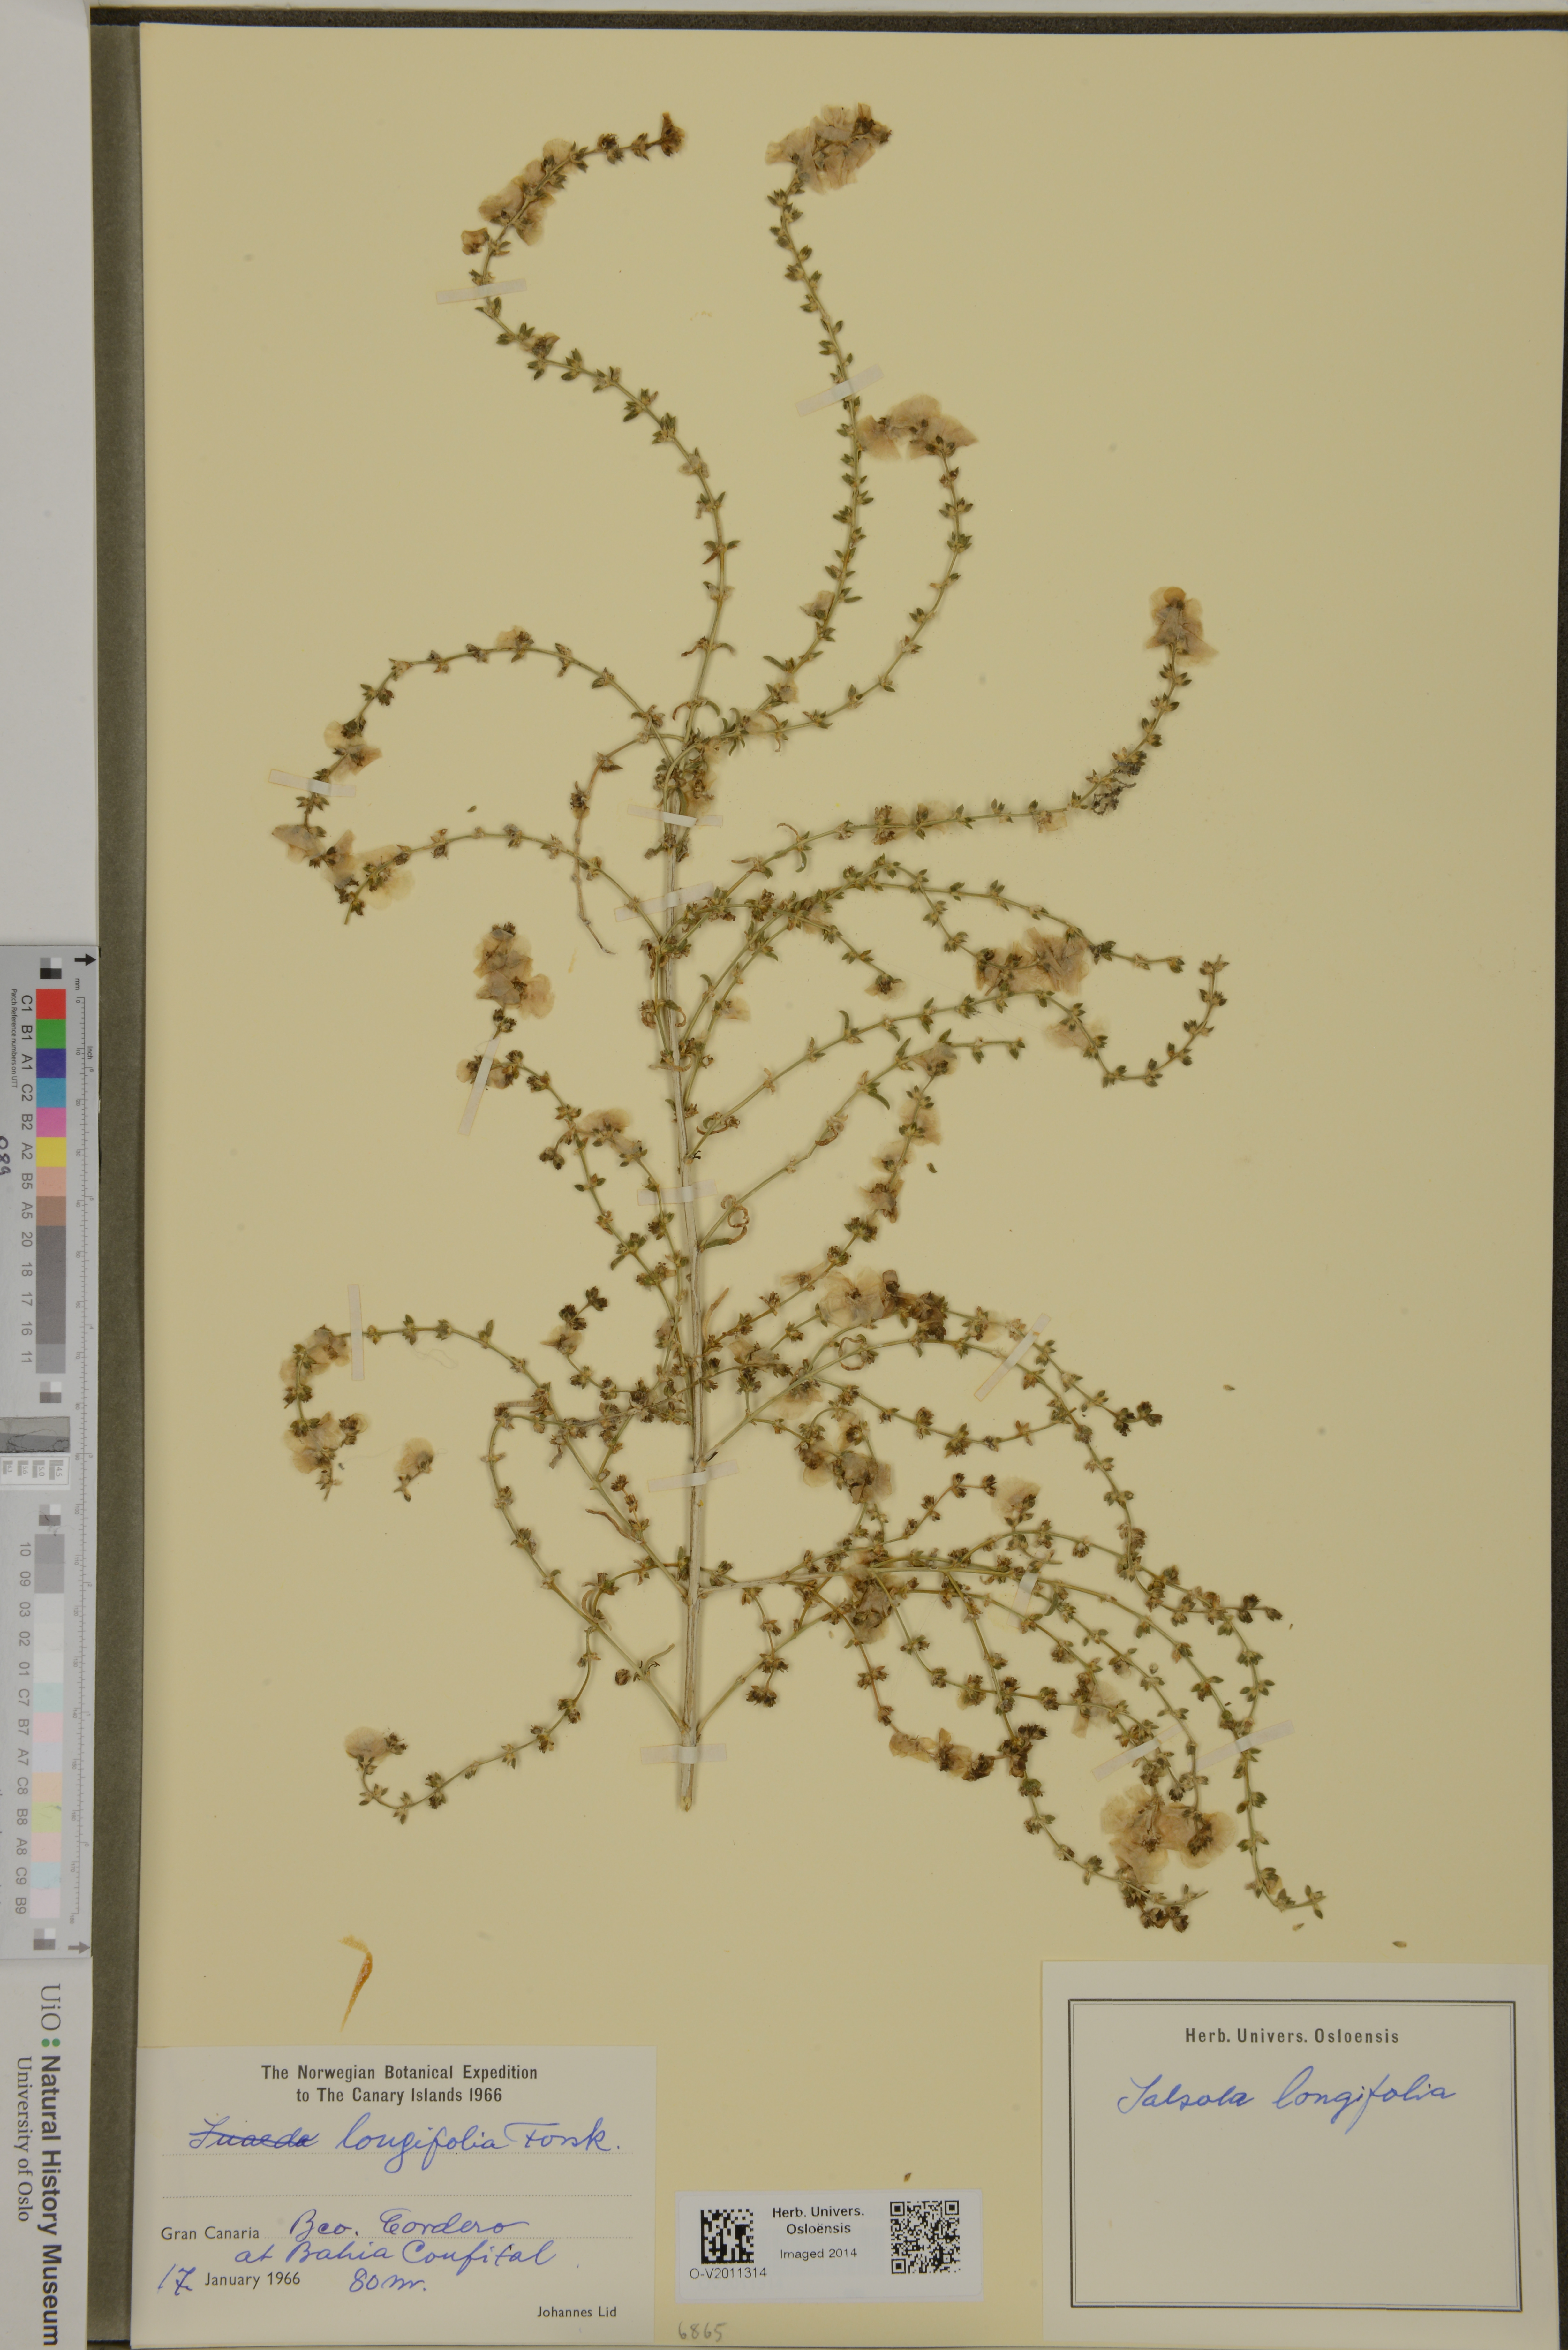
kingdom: Plantae
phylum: Tracheophyta
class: Magnoliopsida
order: Caryophyllales
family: Amaranthaceae
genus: Soda
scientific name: Soda longifolia
